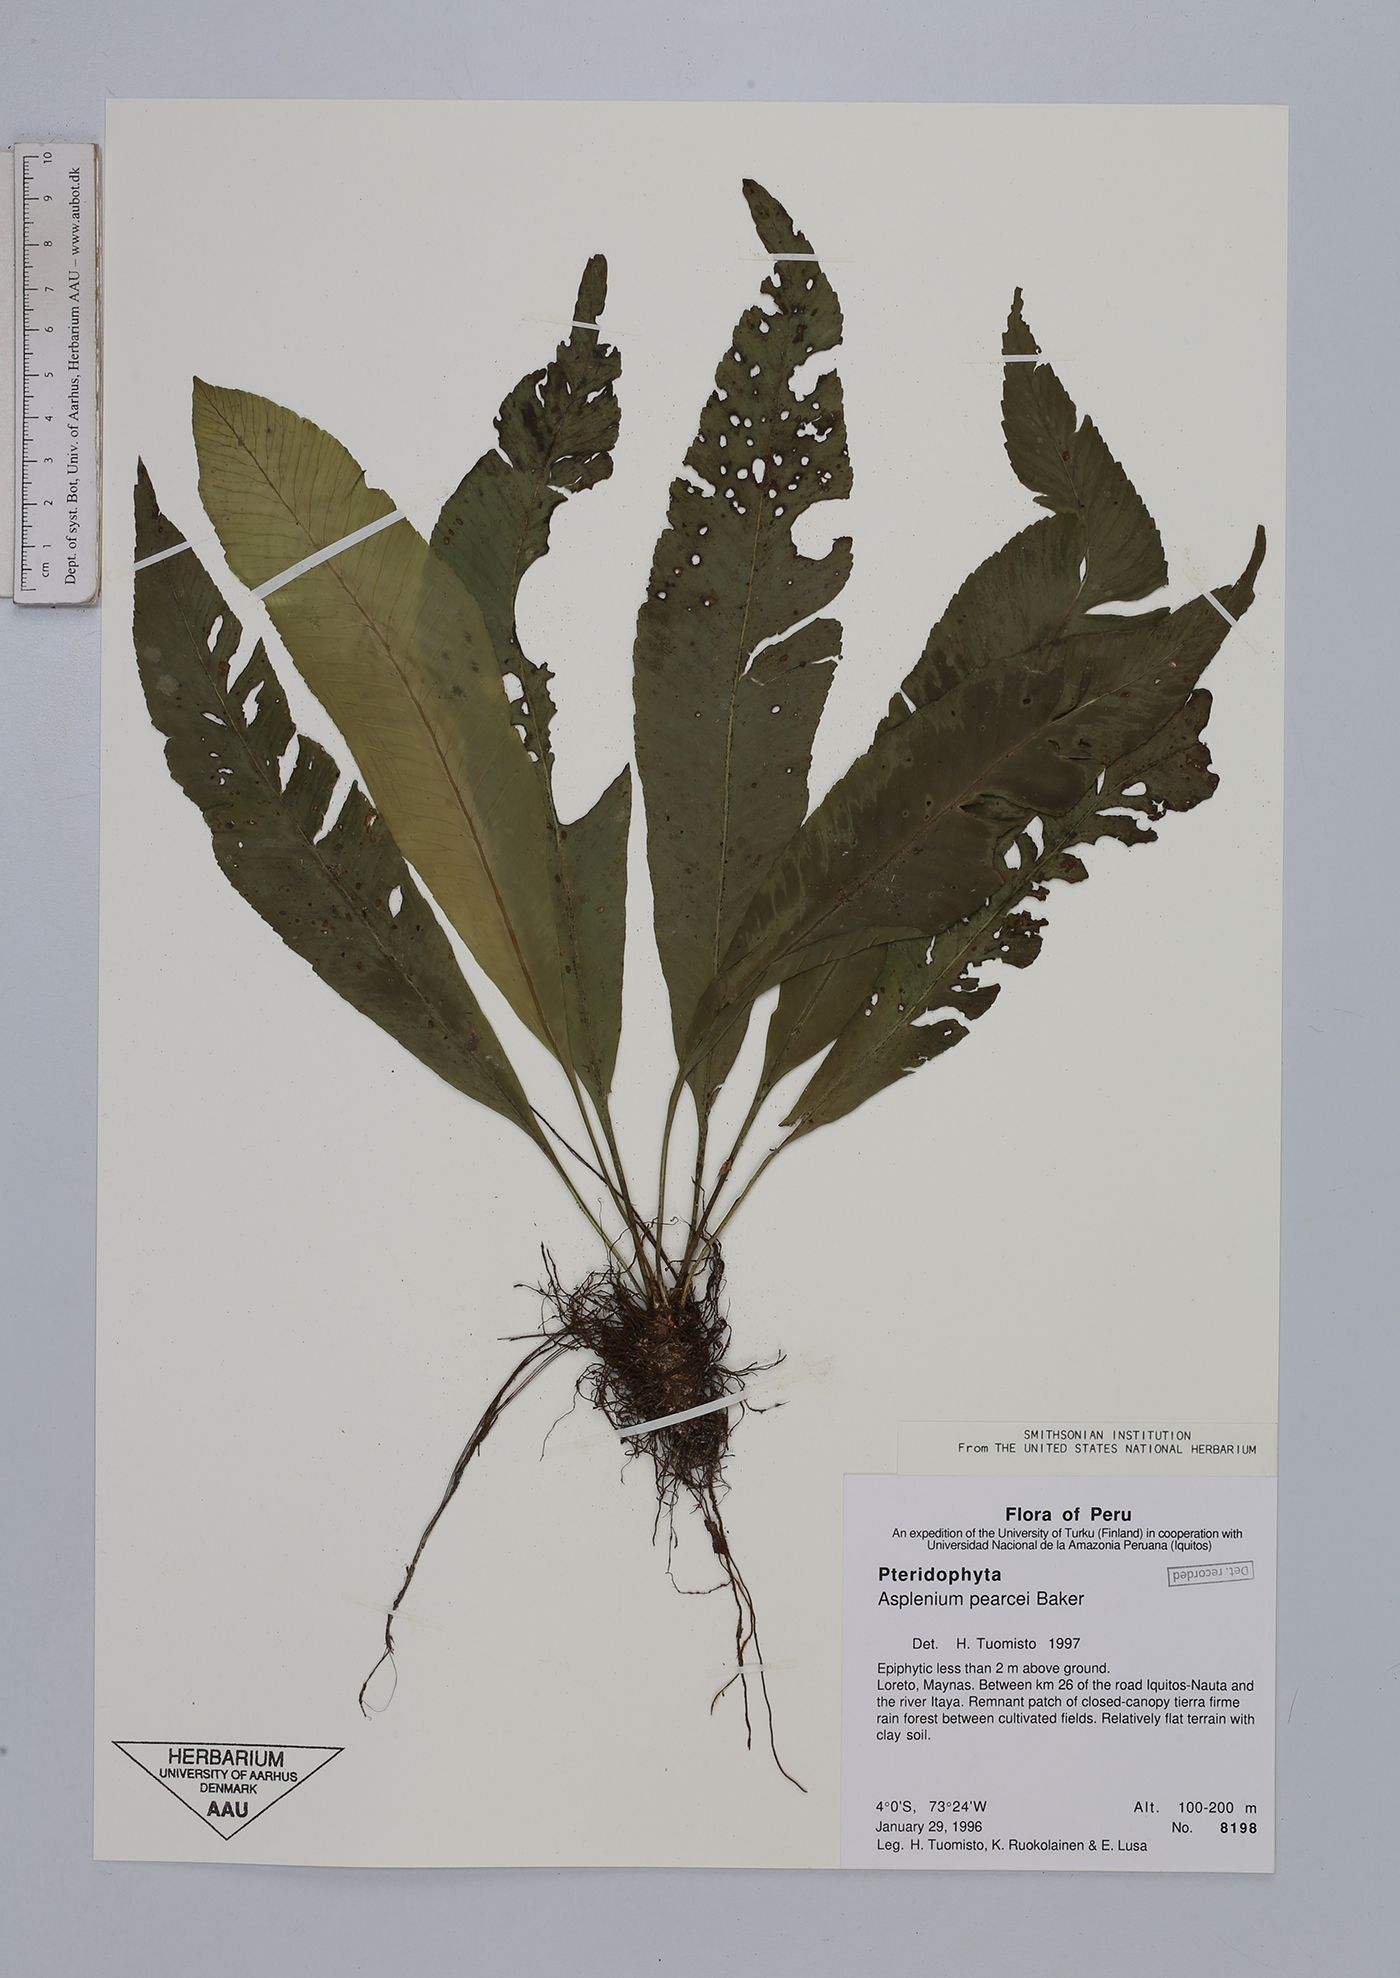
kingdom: Plantae
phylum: Tracheophyta
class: Polypodiopsida
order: Polypodiales
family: Aspleniaceae
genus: Asplenium
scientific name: Asplenium pearcei
